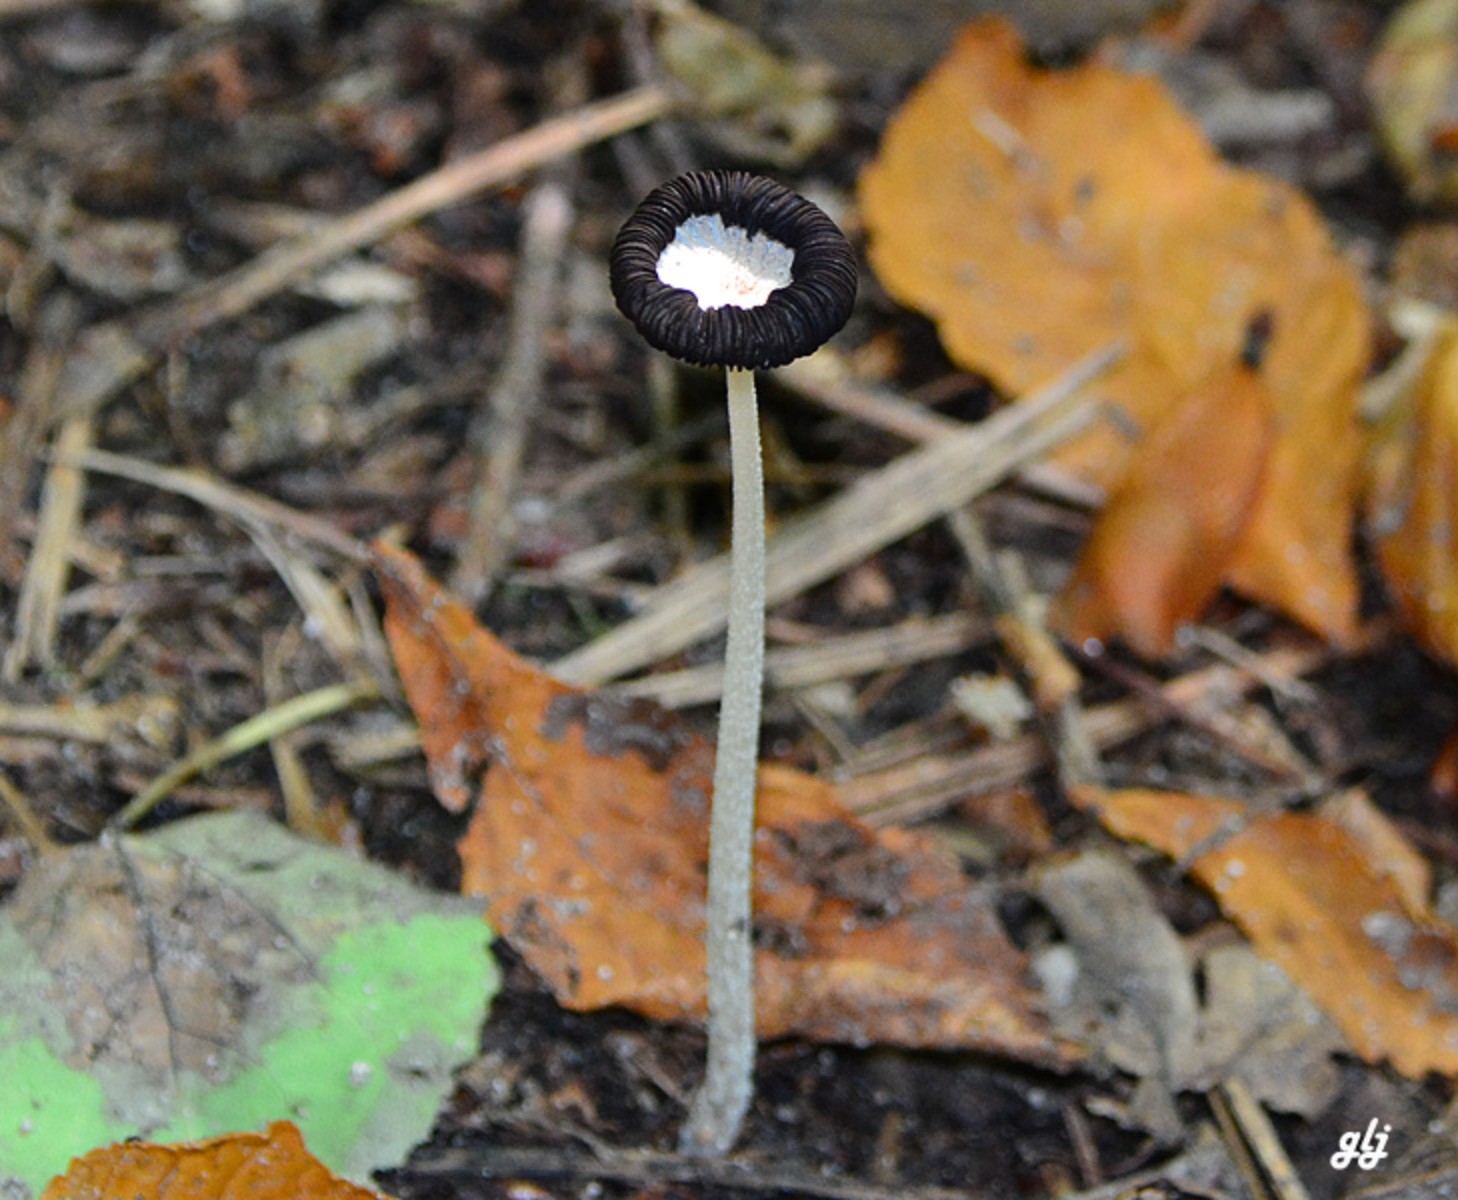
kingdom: Fungi
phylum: Basidiomycota
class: Agaricomycetes
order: Agaricales
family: Psathyrellaceae
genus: Coprinopsis
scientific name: Coprinopsis lagopus
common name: dunstokket blækhat
